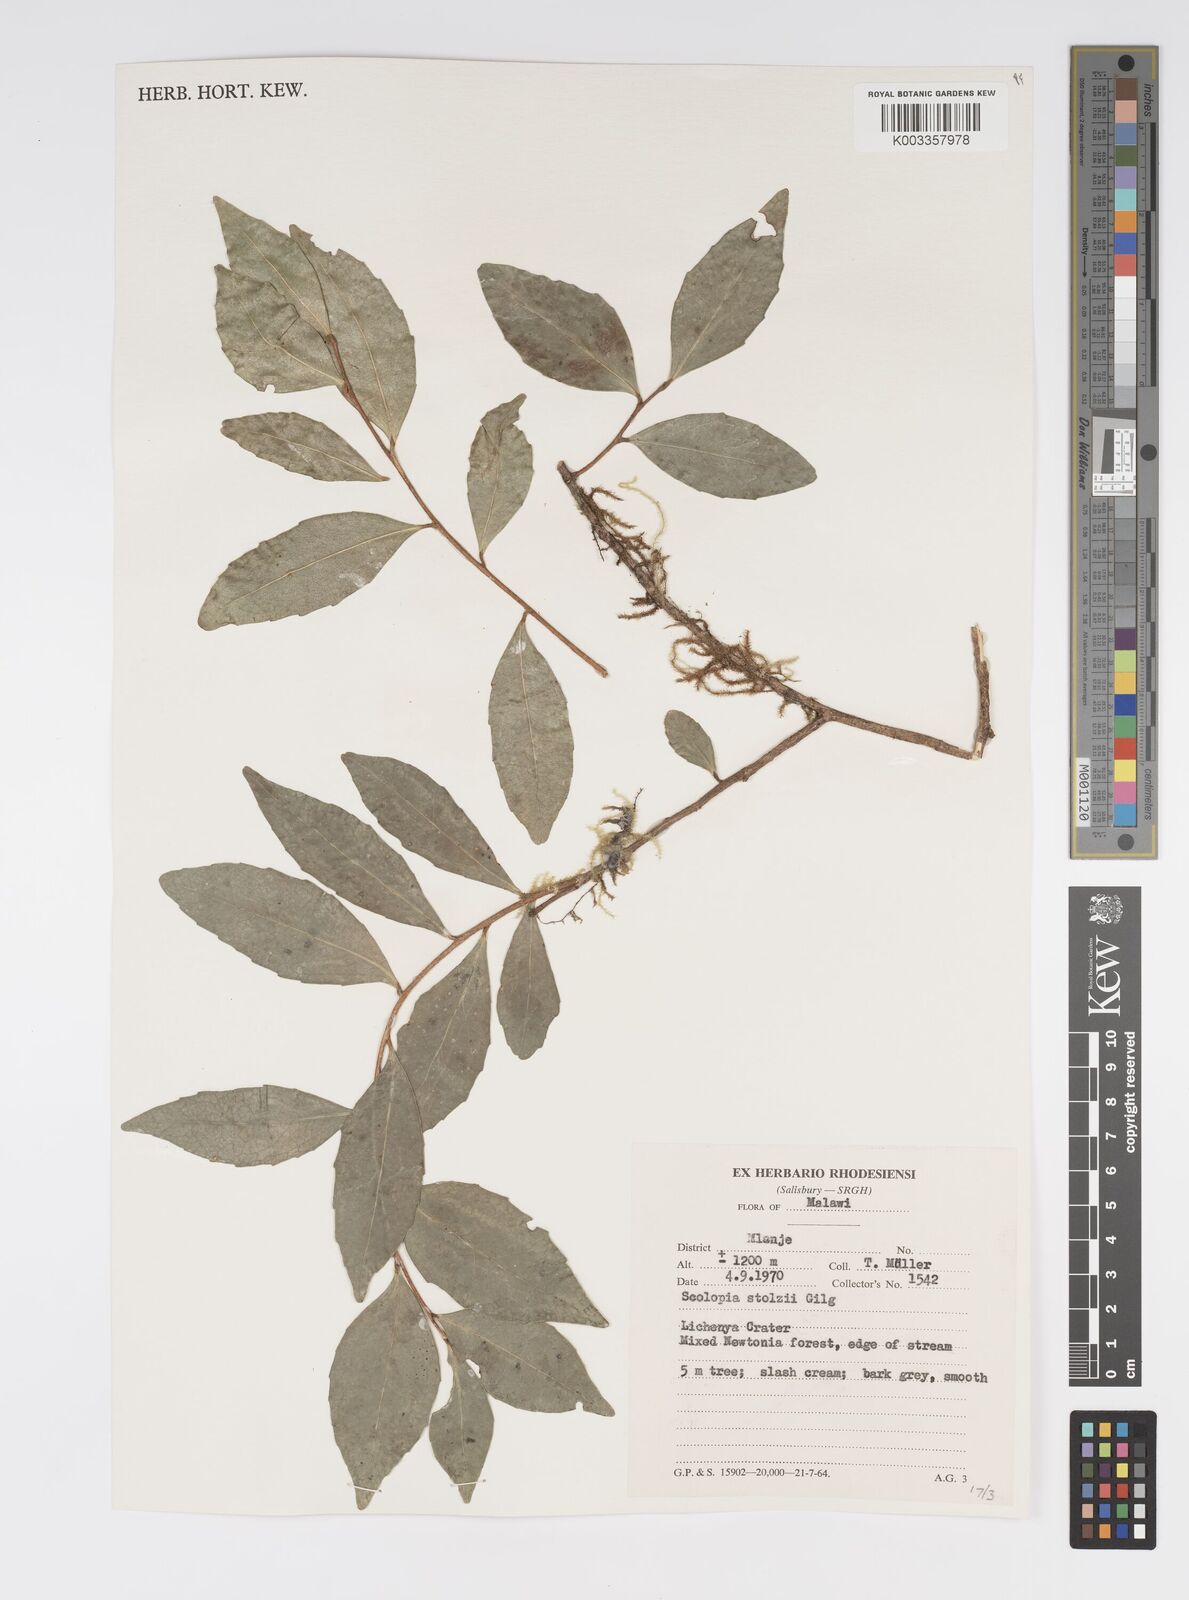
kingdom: Plantae
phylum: Tracheophyta
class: Magnoliopsida
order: Malpighiales
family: Salicaceae
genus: Scolopia
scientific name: Scolopia stolzii
